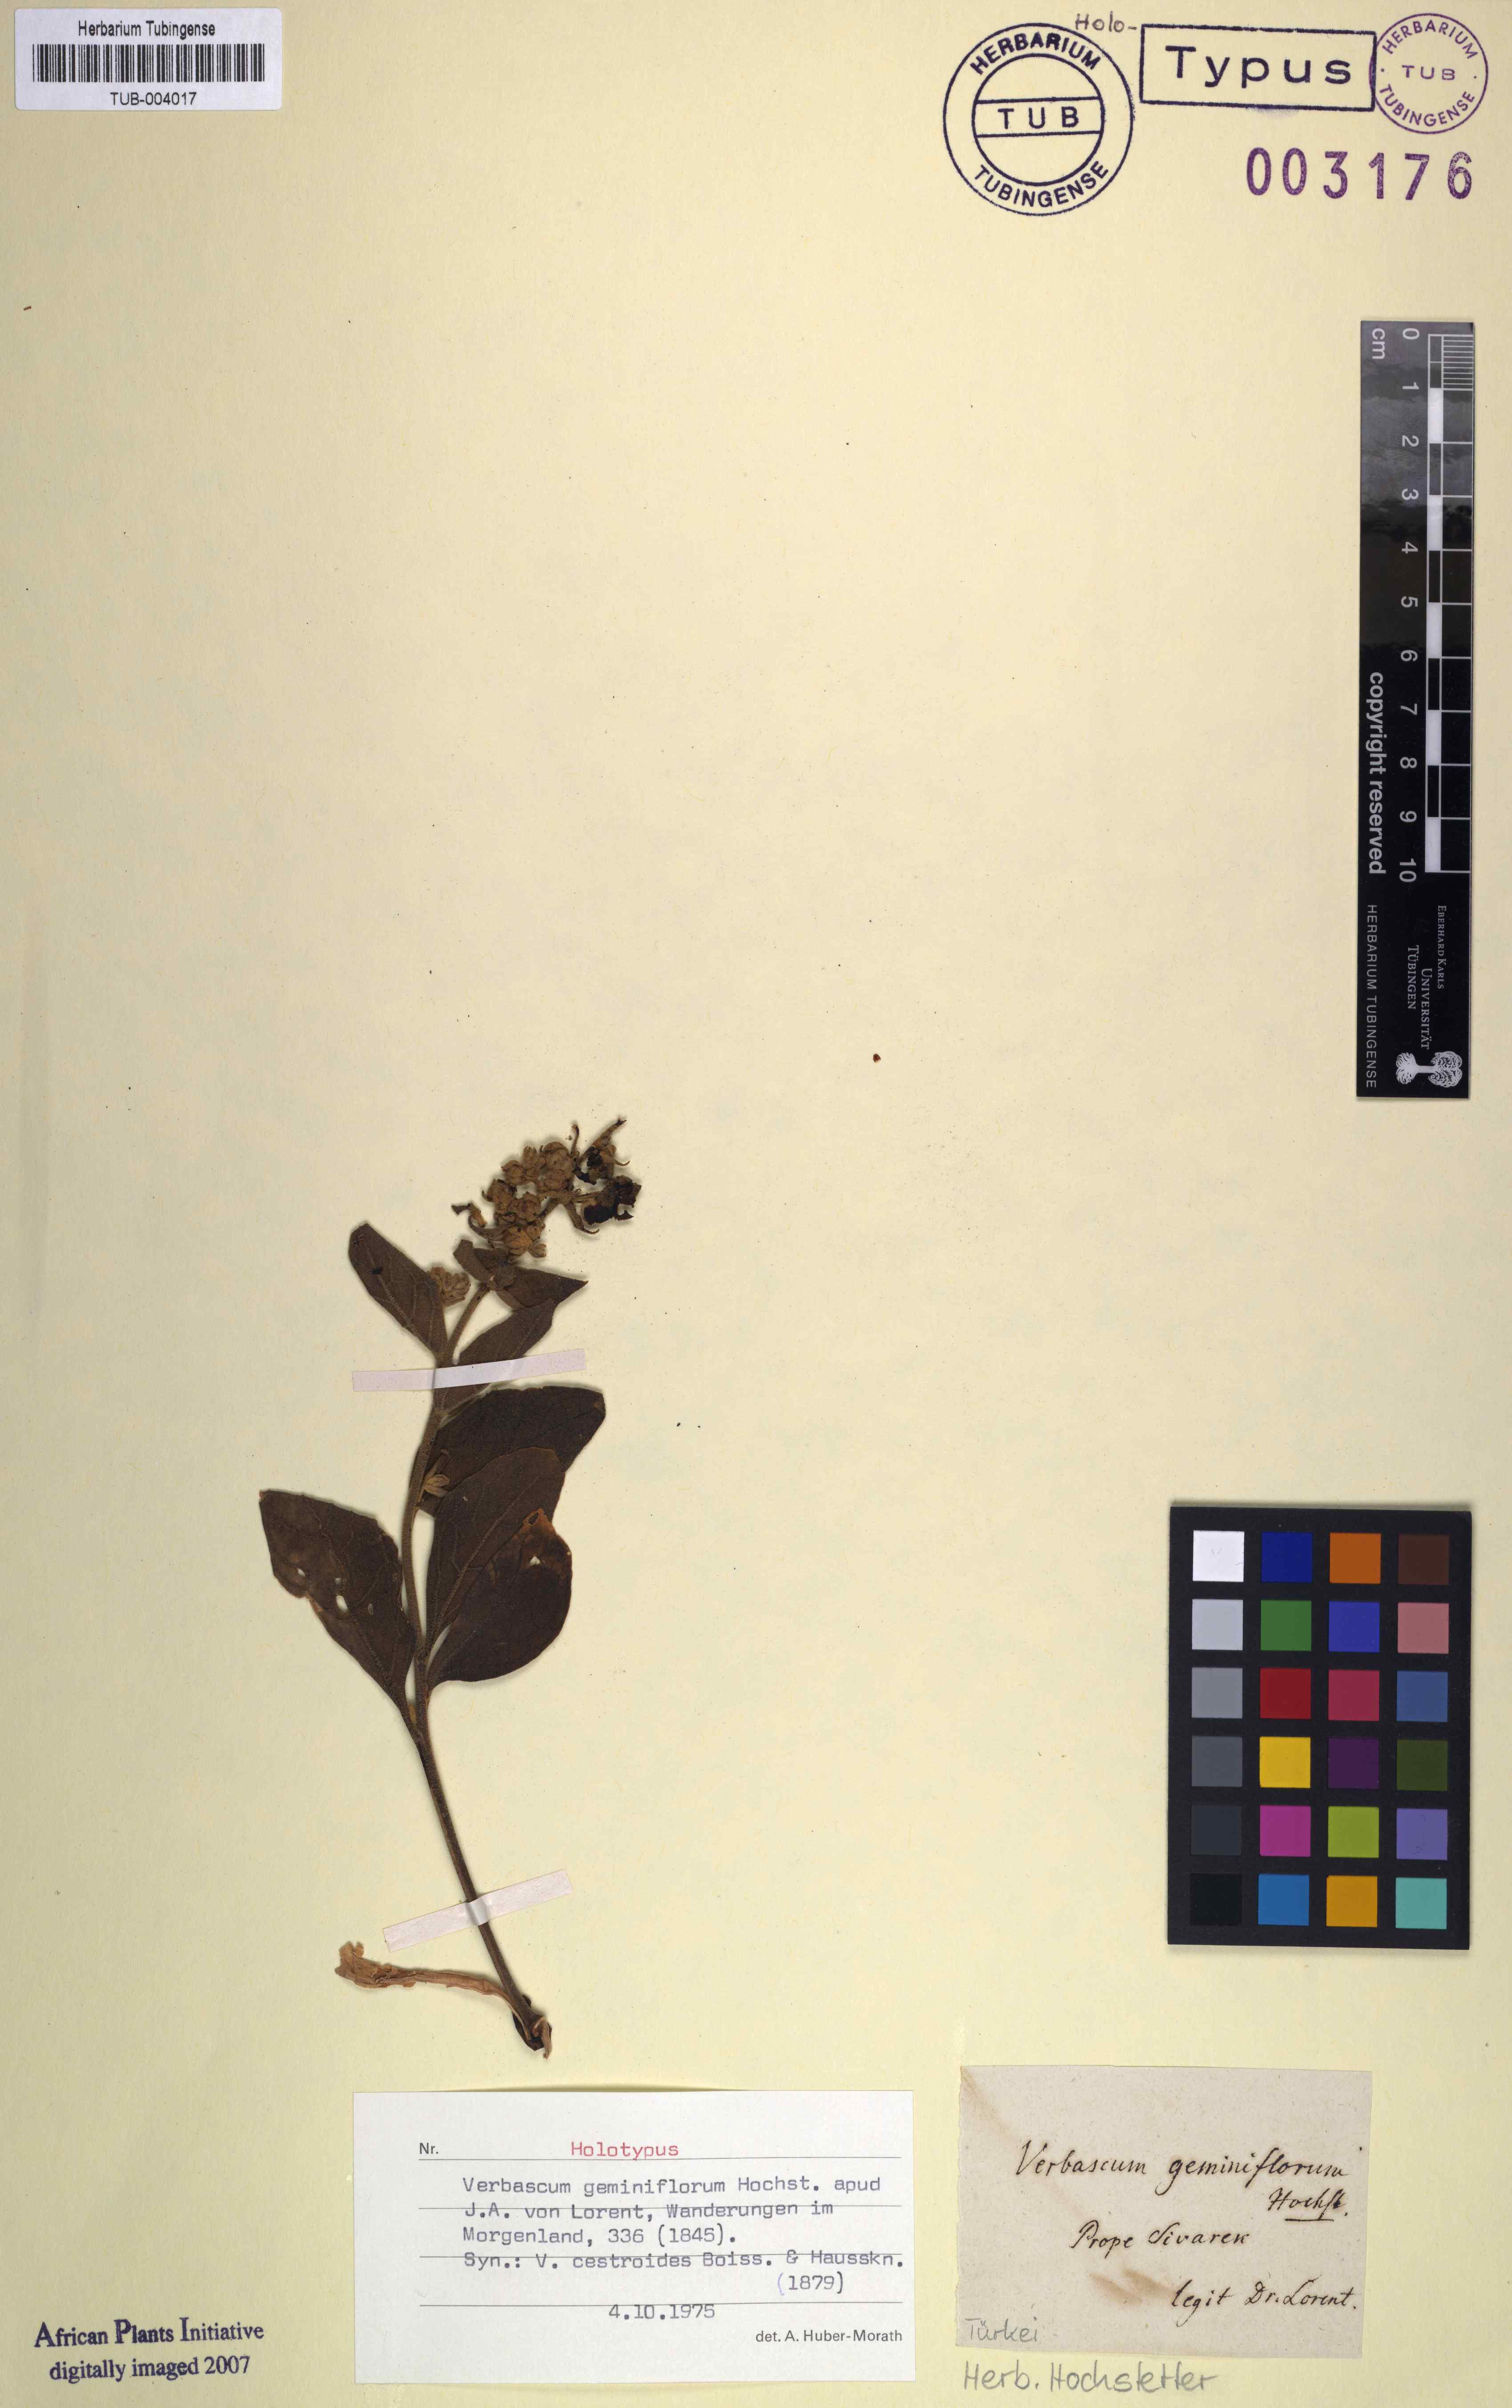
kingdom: Plantae
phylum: Tracheophyta
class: Magnoliopsida
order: Lamiales
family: Scrophulariaceae
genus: Verbascum
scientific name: Verbascum geminiflorum
